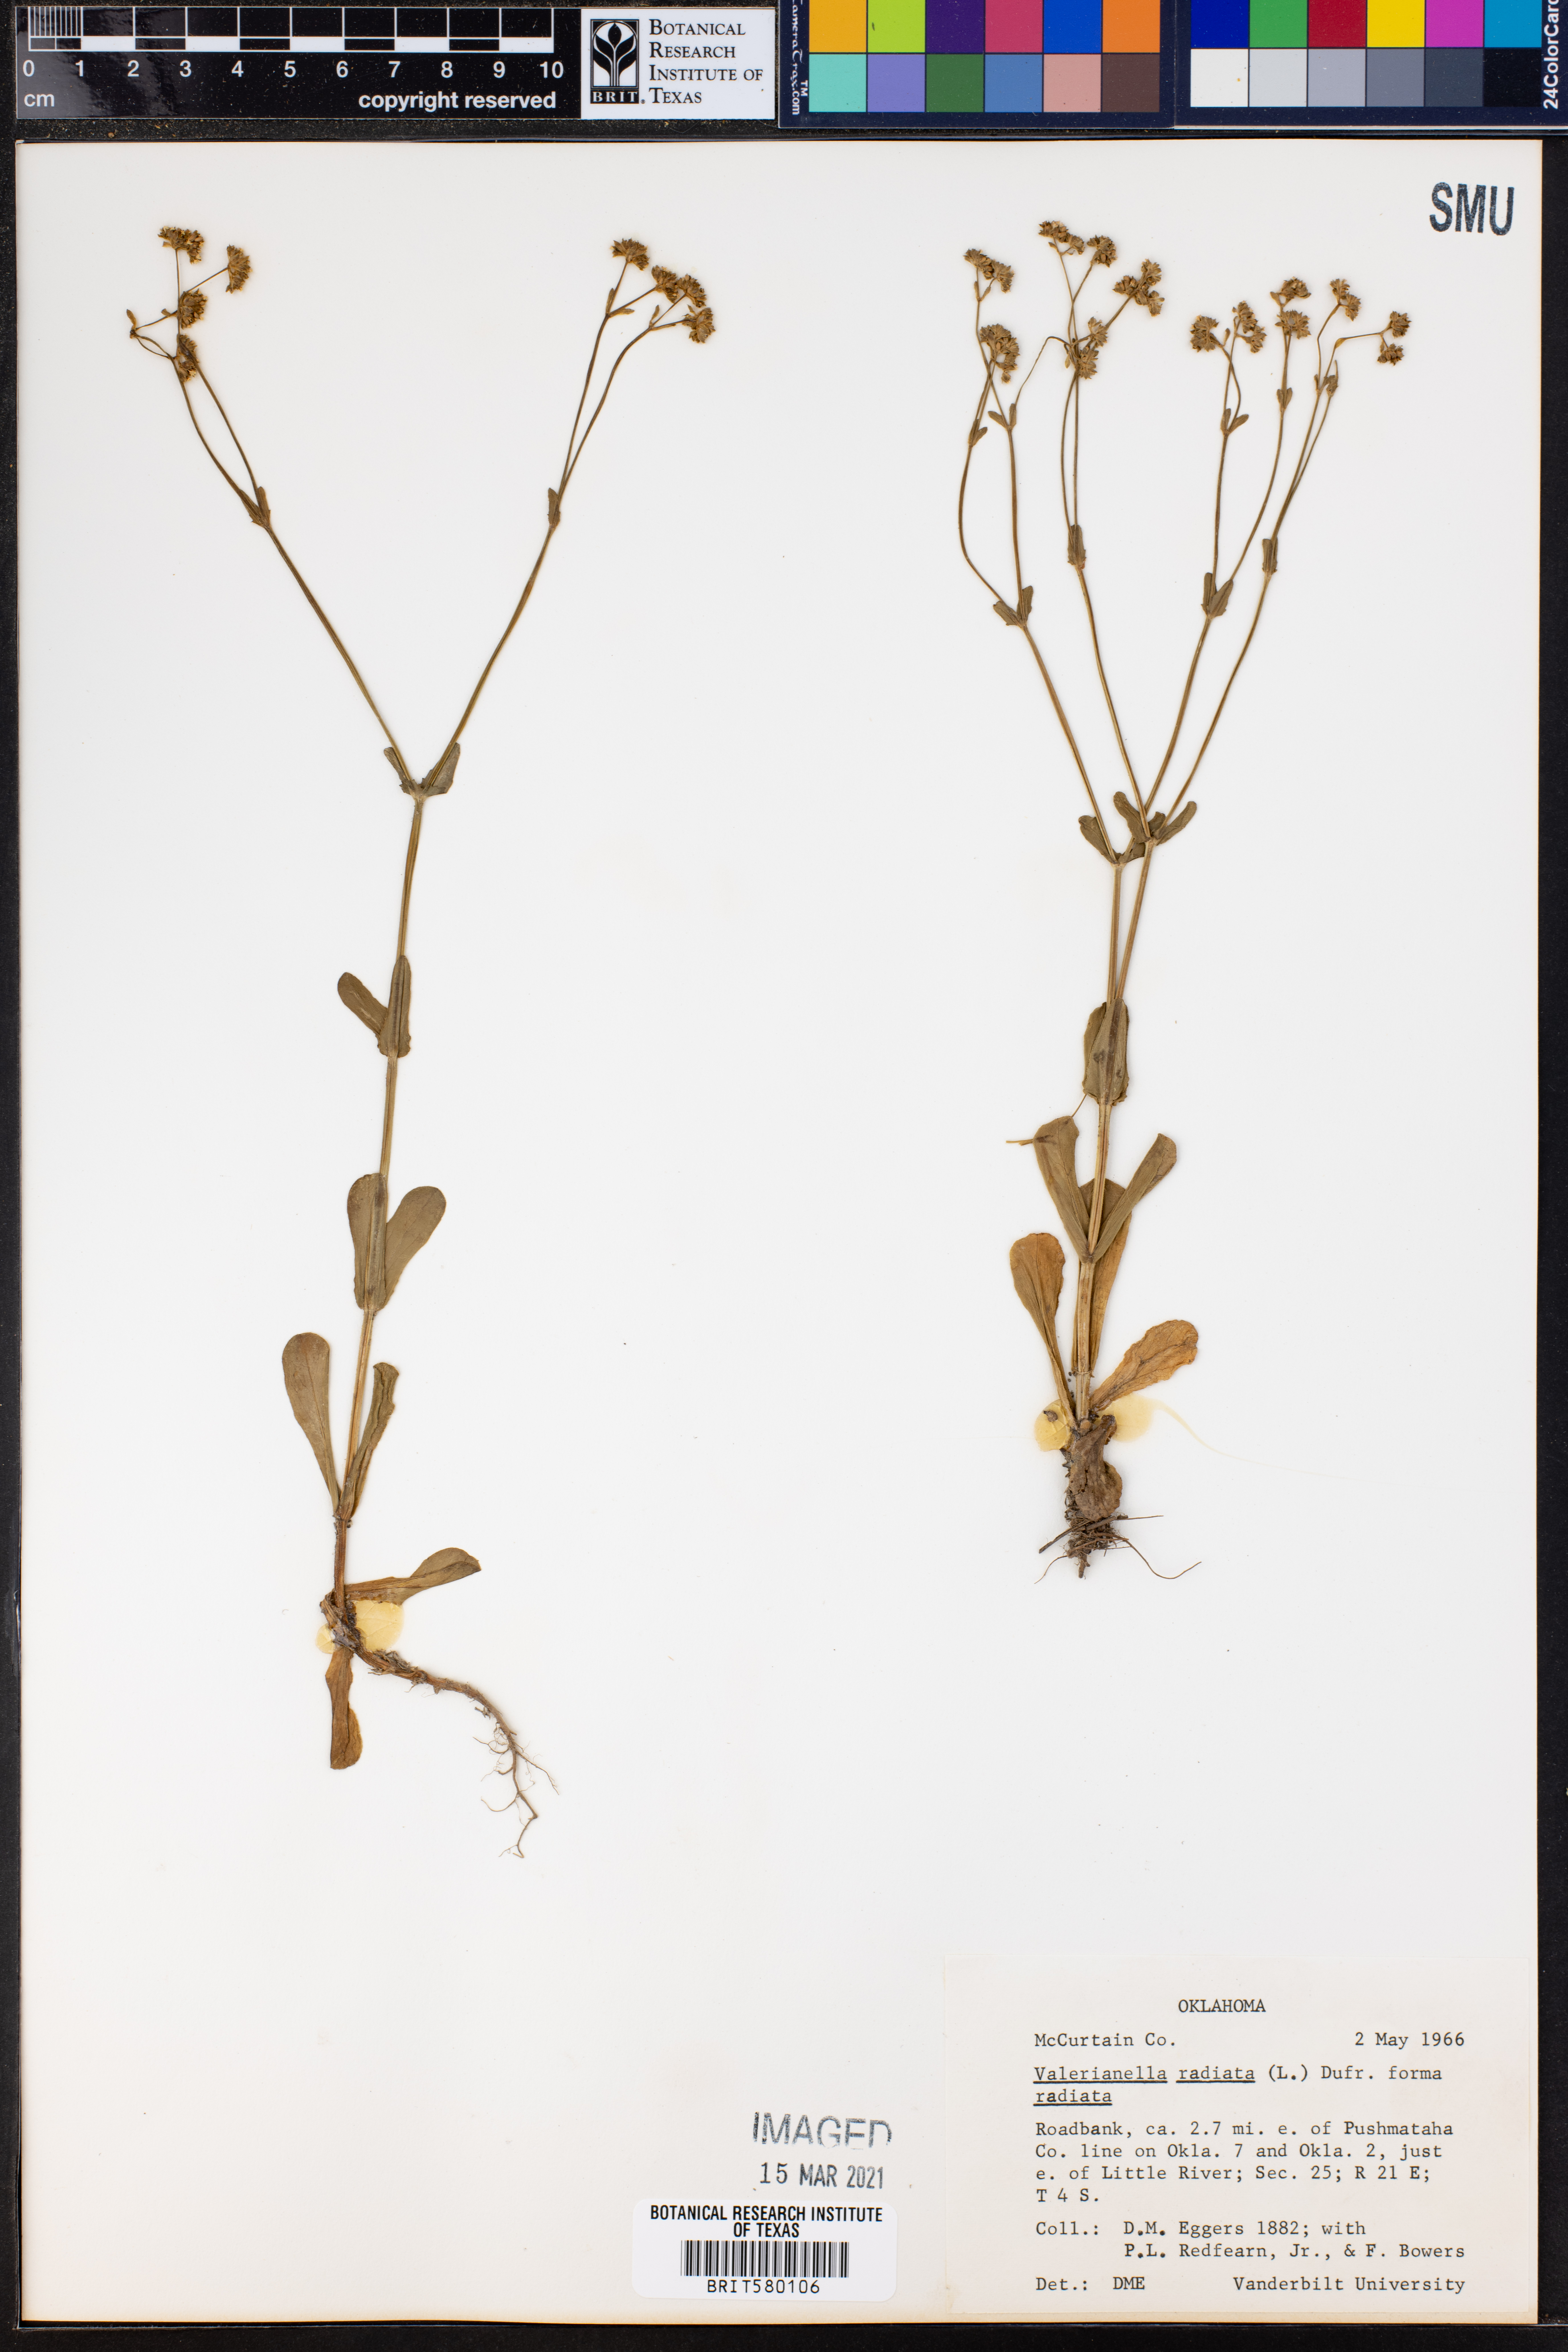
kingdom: Plantae
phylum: Tracheophyta
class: Magnoliopsida
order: Dipsacales
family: Caprifoliaceae
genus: Valerianella
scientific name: Valerianella radiata
